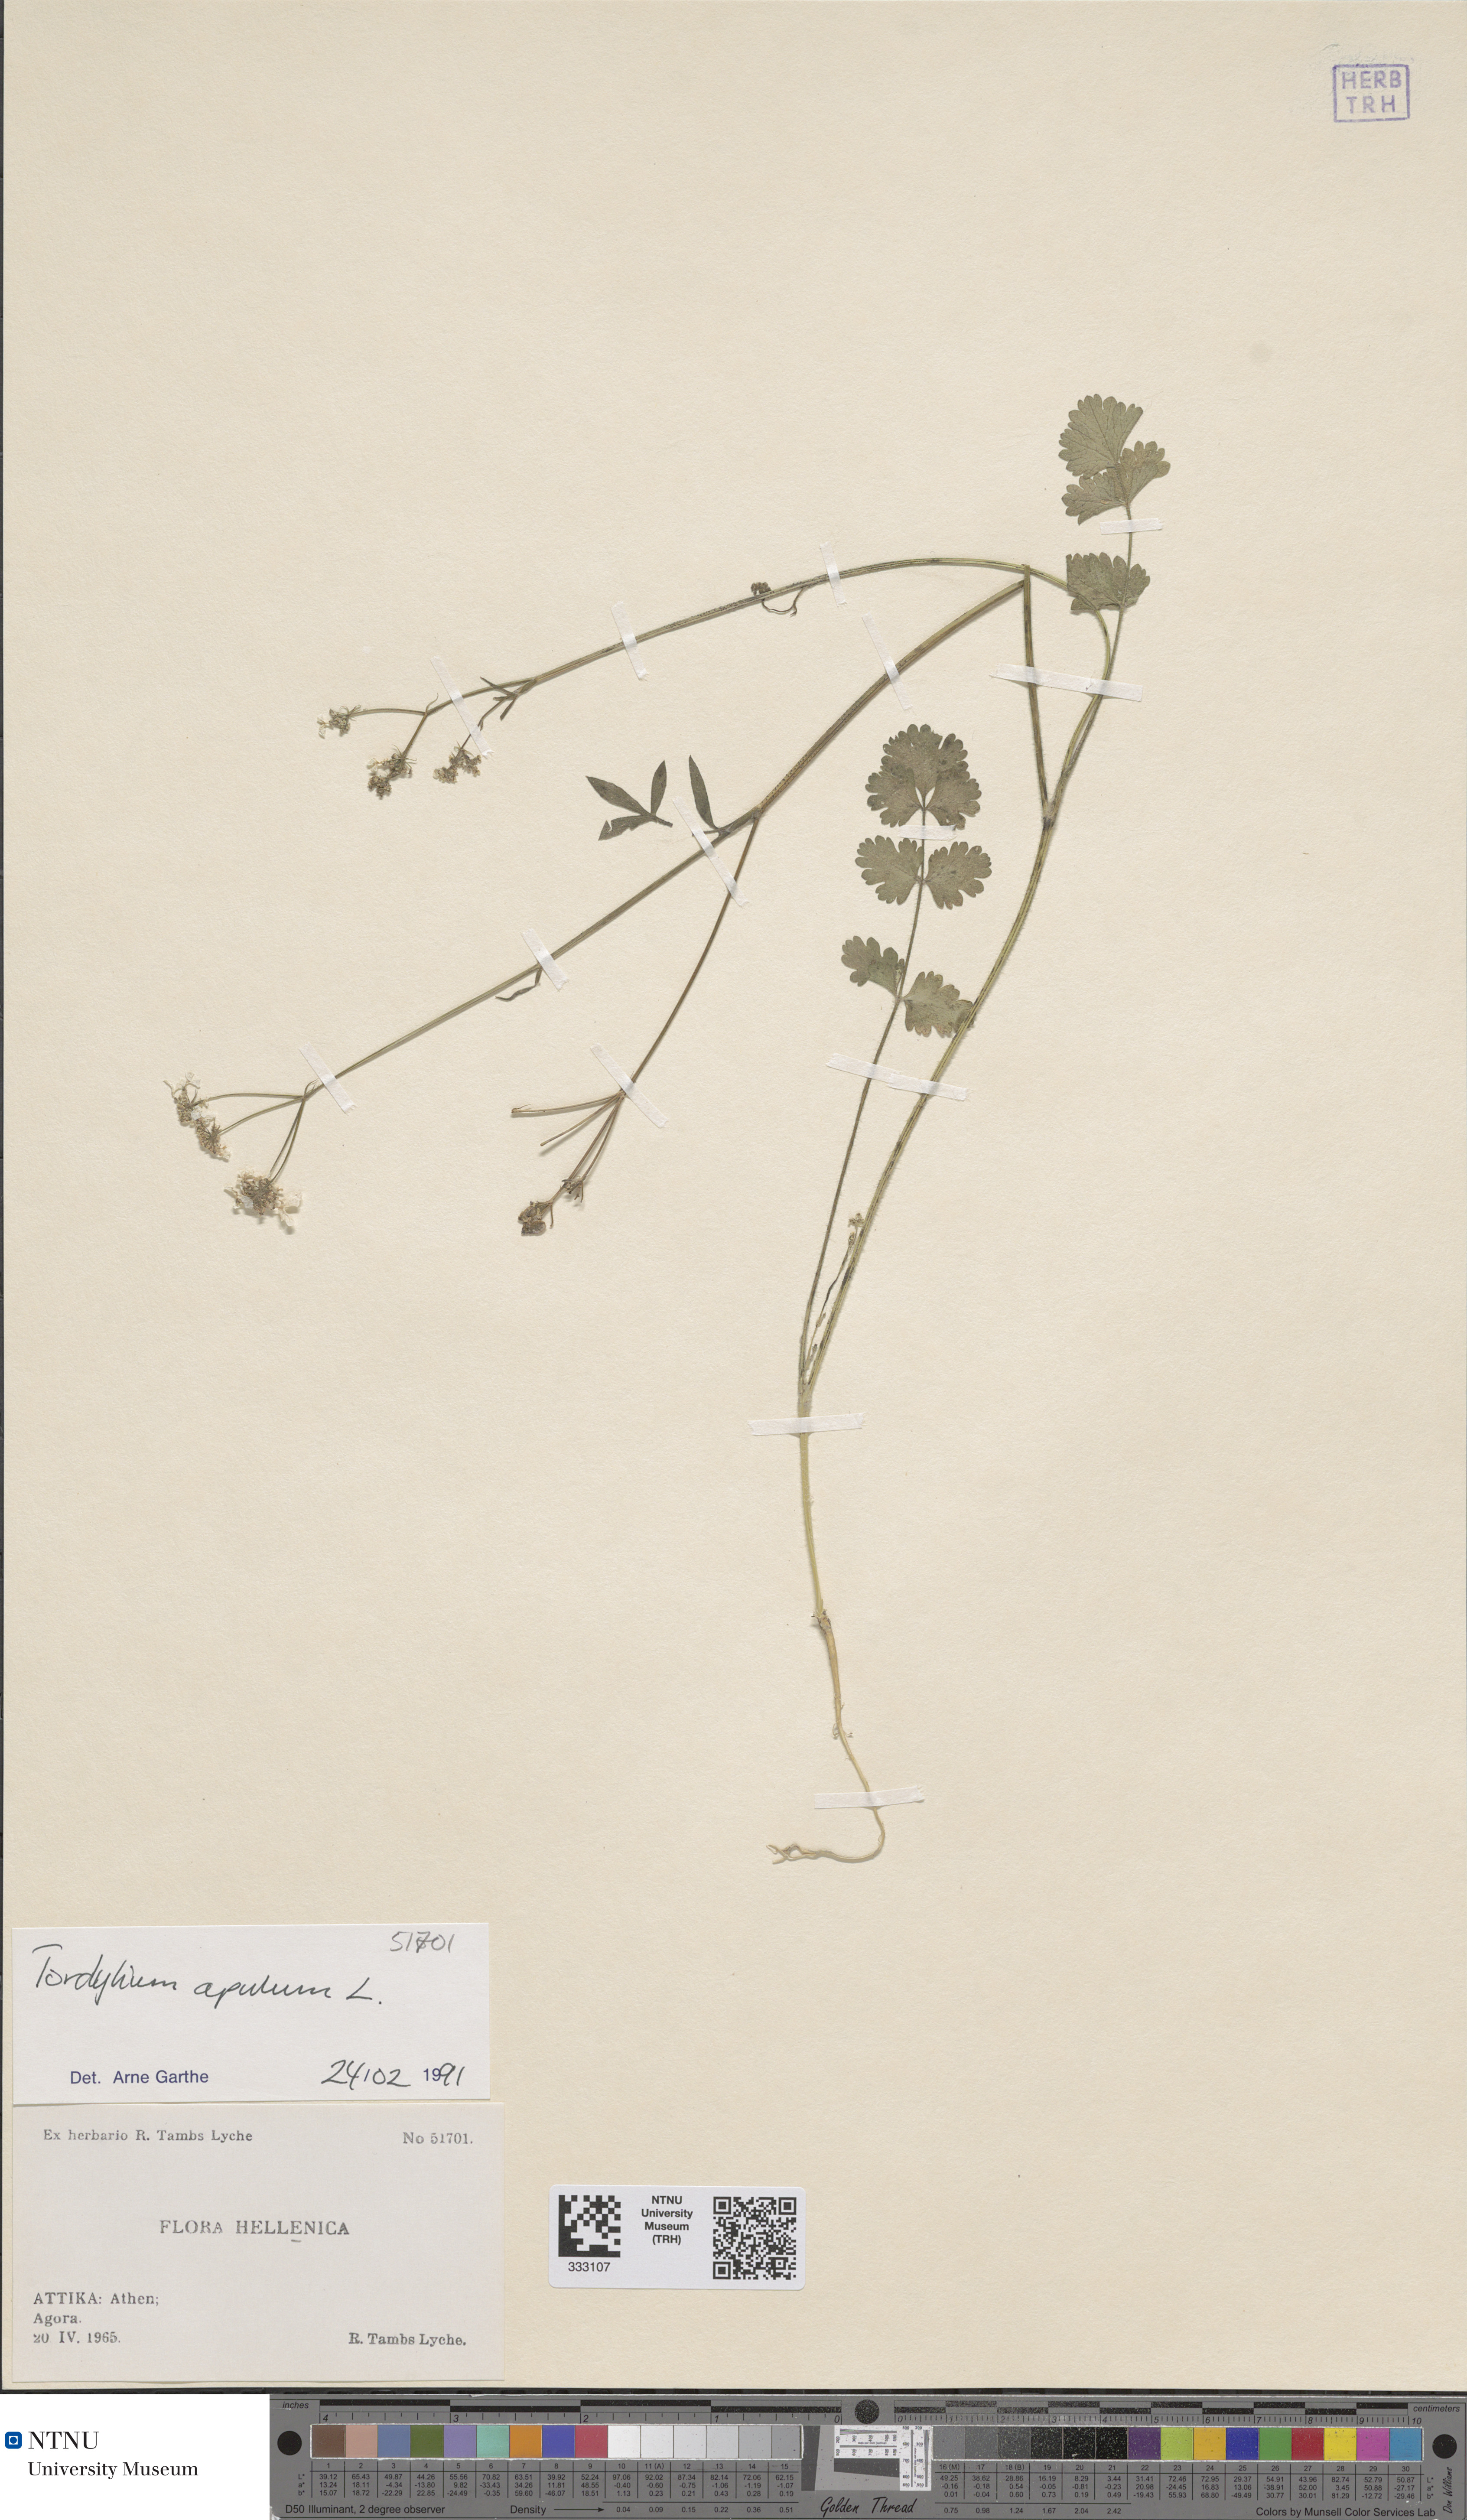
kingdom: Plantae
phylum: Tracheophyta
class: Magnoliopsida
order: Apiales
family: Apiaceae
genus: Tordylium
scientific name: Tordylium apulum
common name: Mediterranean hartwort
